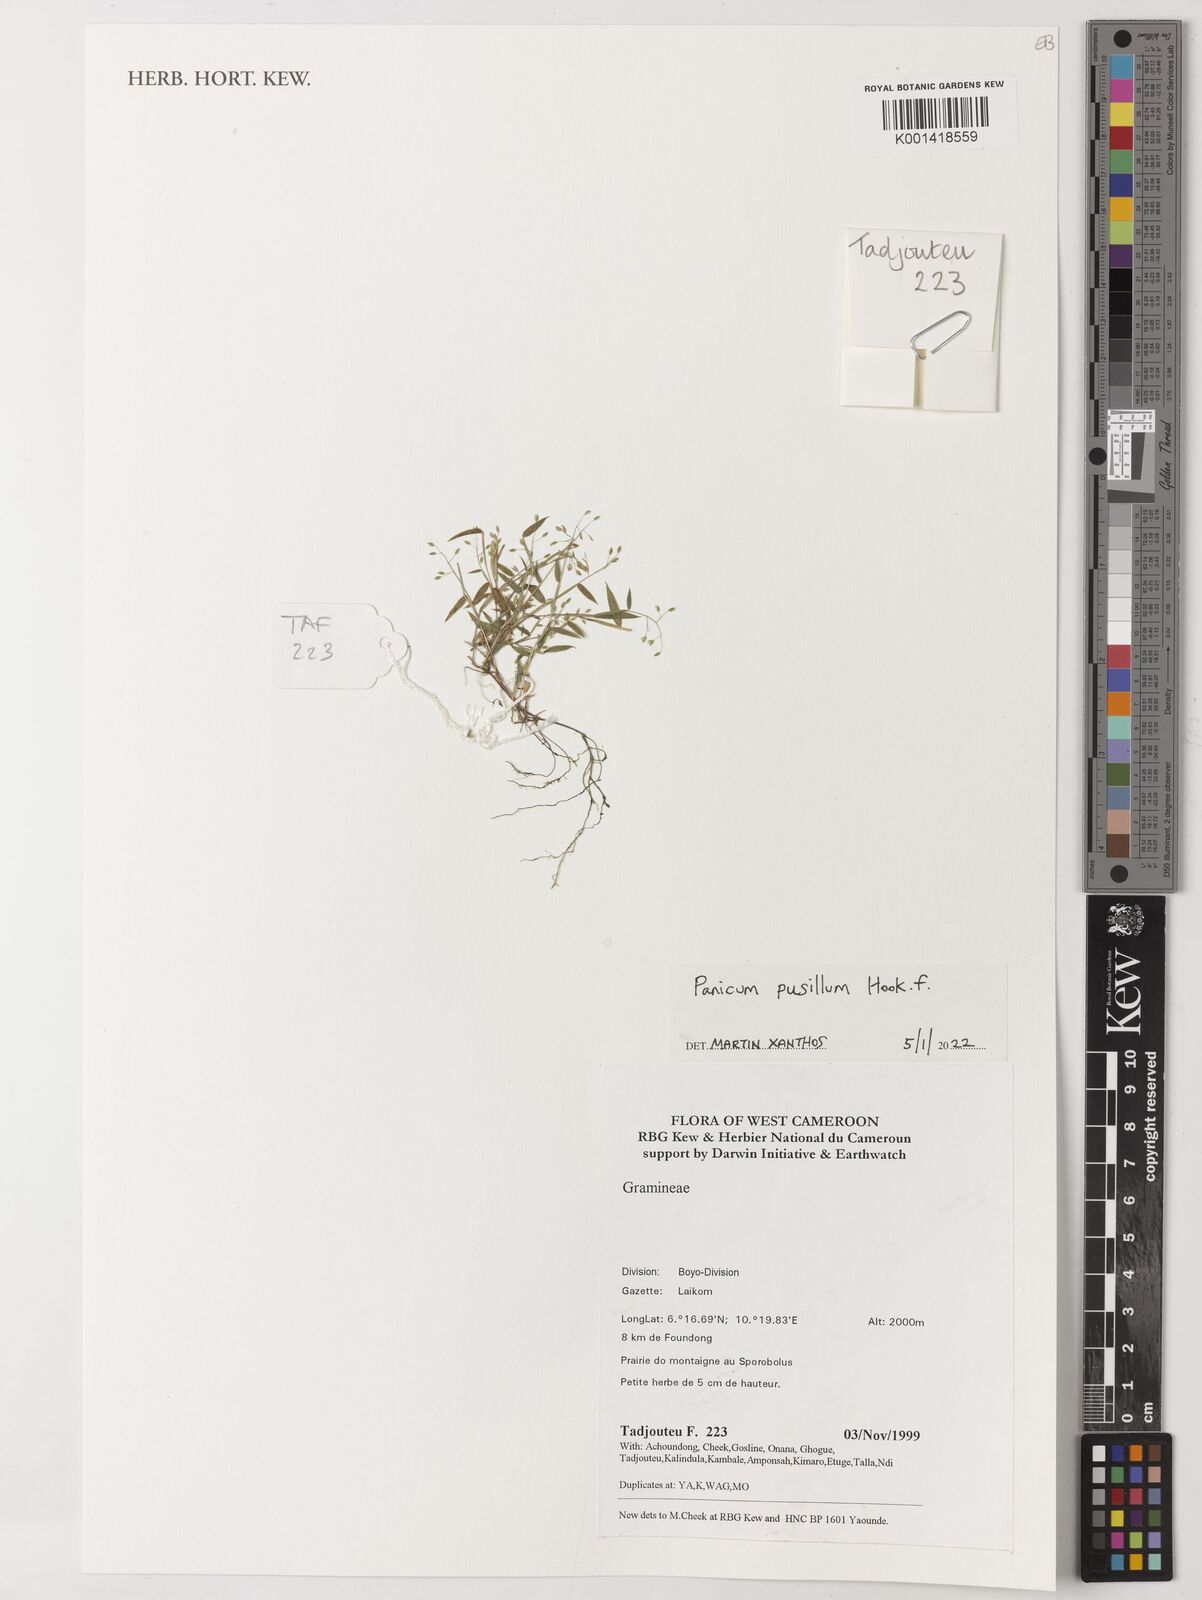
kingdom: Plantae
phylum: Tracheophyta
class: Liliopsida
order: Poales
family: Poaceae
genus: Panicum
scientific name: Panicum pusillum
